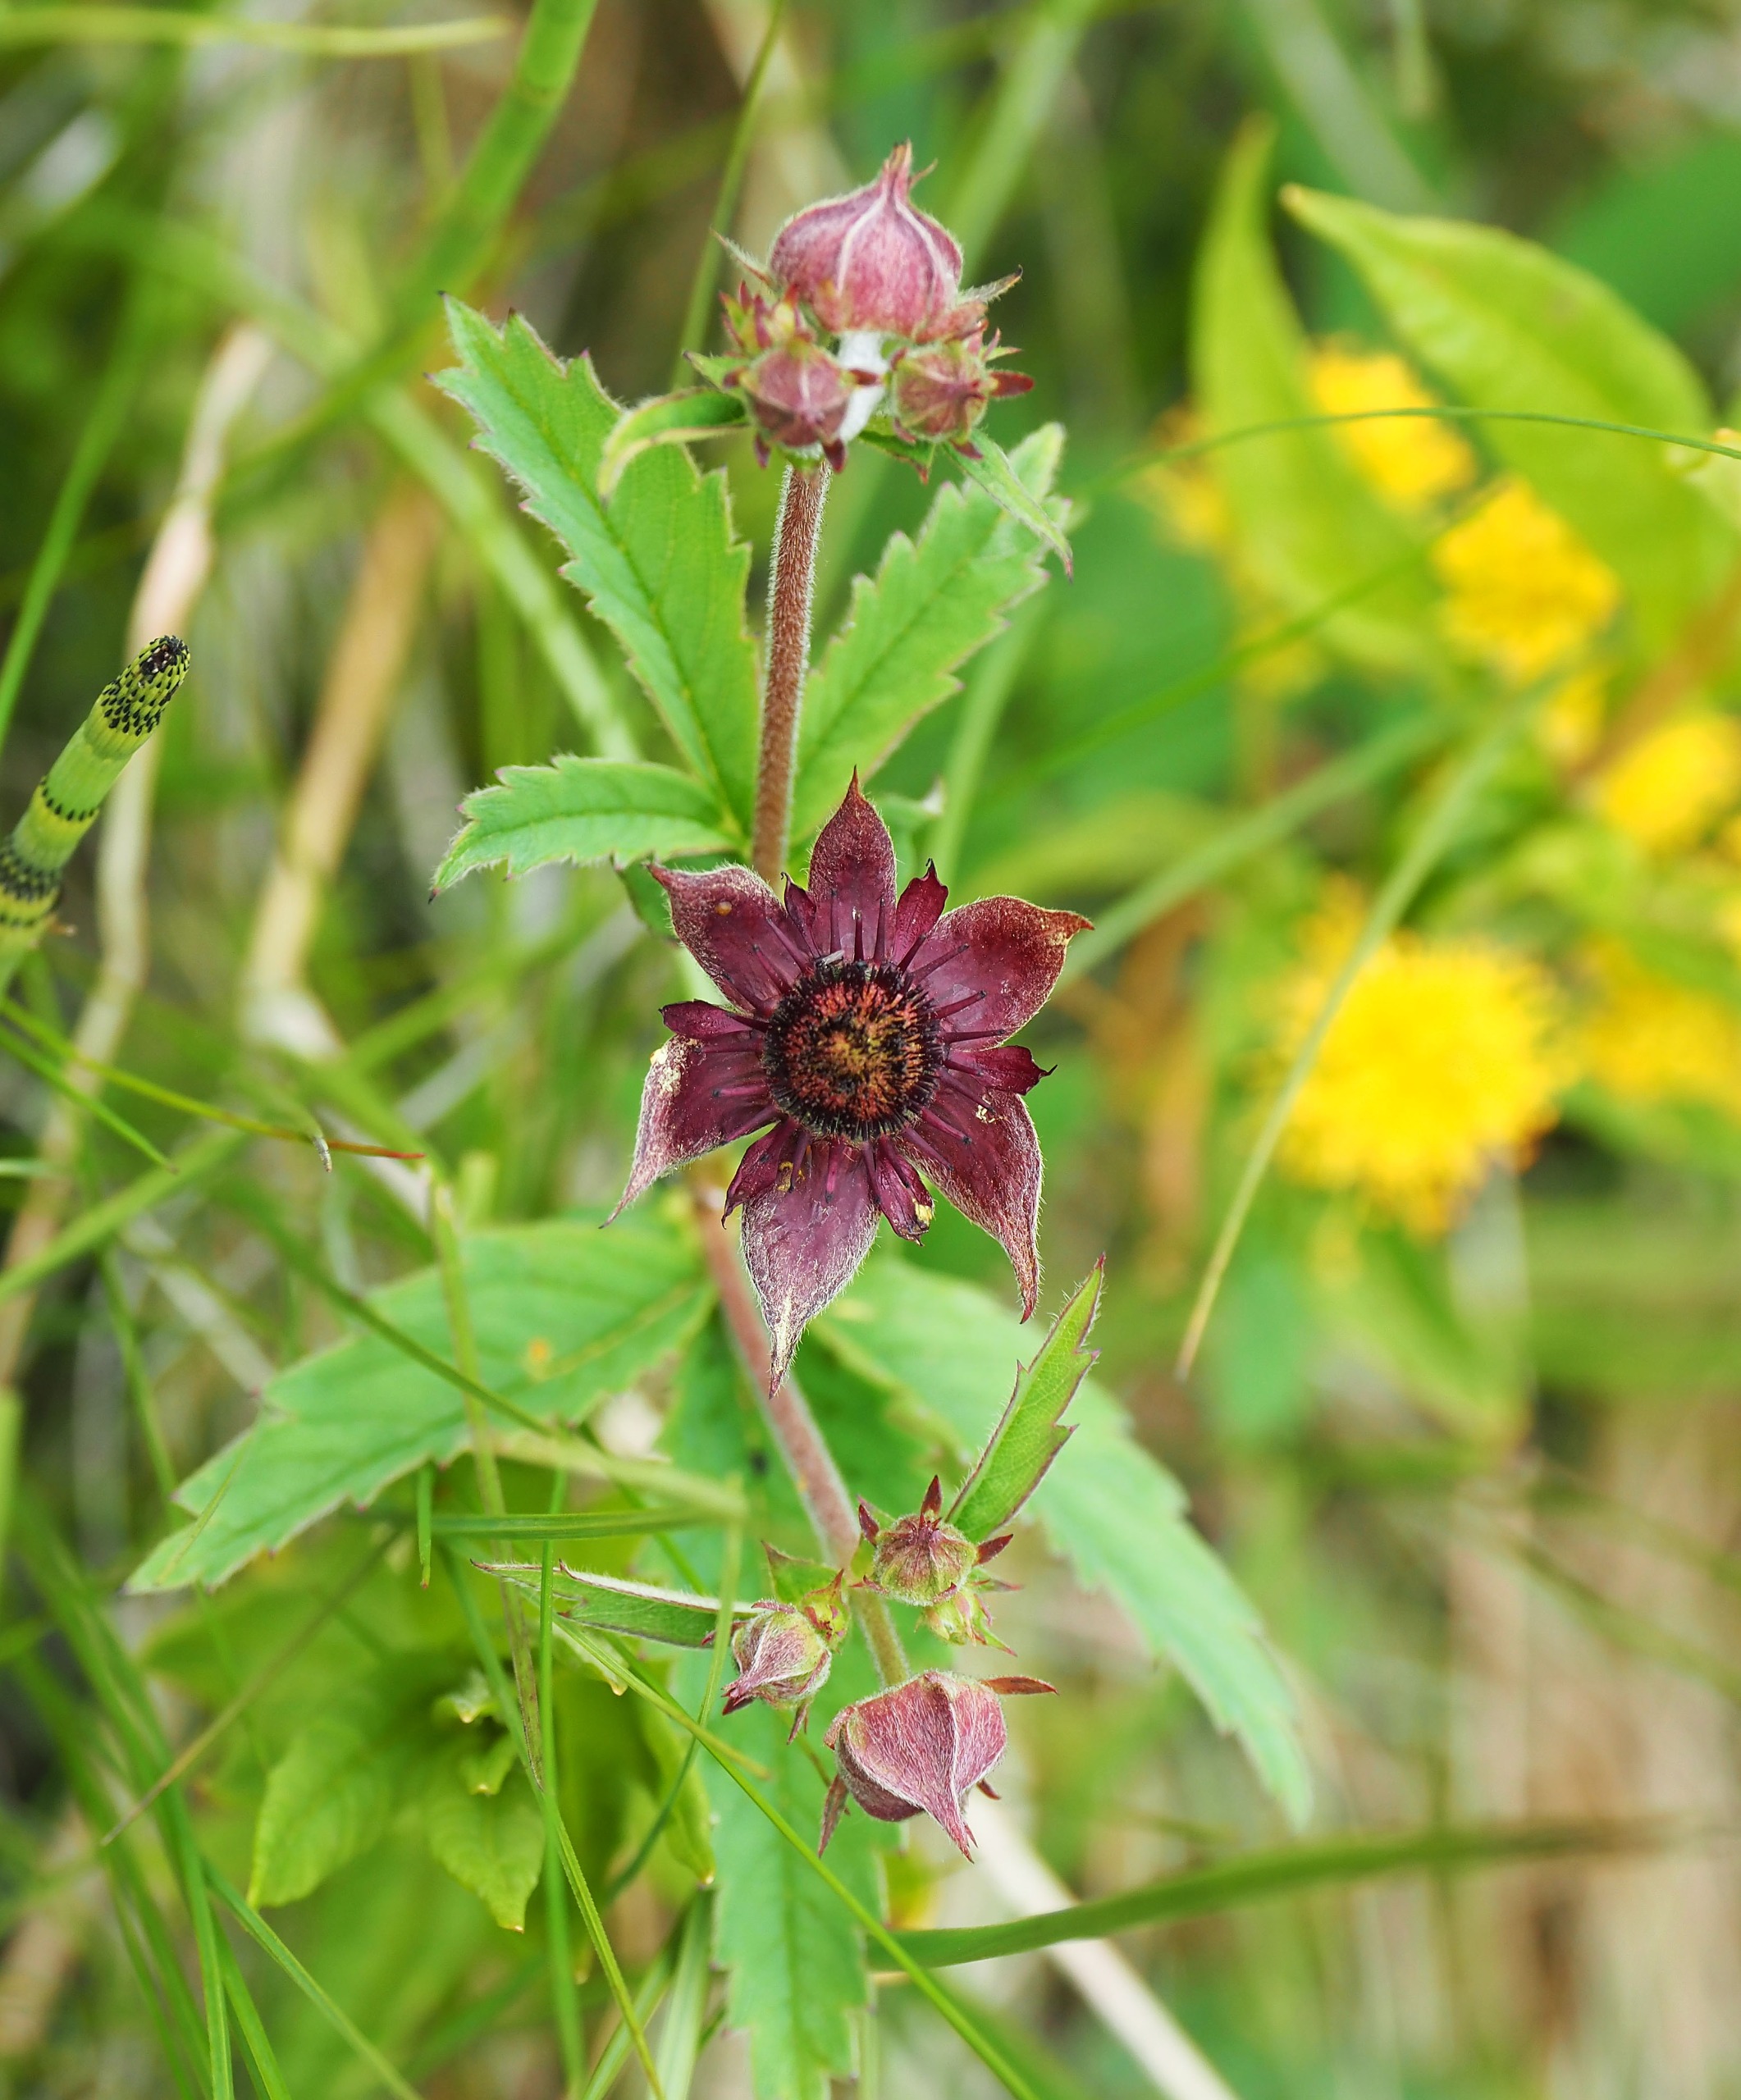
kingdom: Plantae
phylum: Tracheophyta
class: Magnoliopsida
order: Rosales
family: Rosaceae
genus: Comarum
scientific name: Comarum palustre
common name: Kragefod
